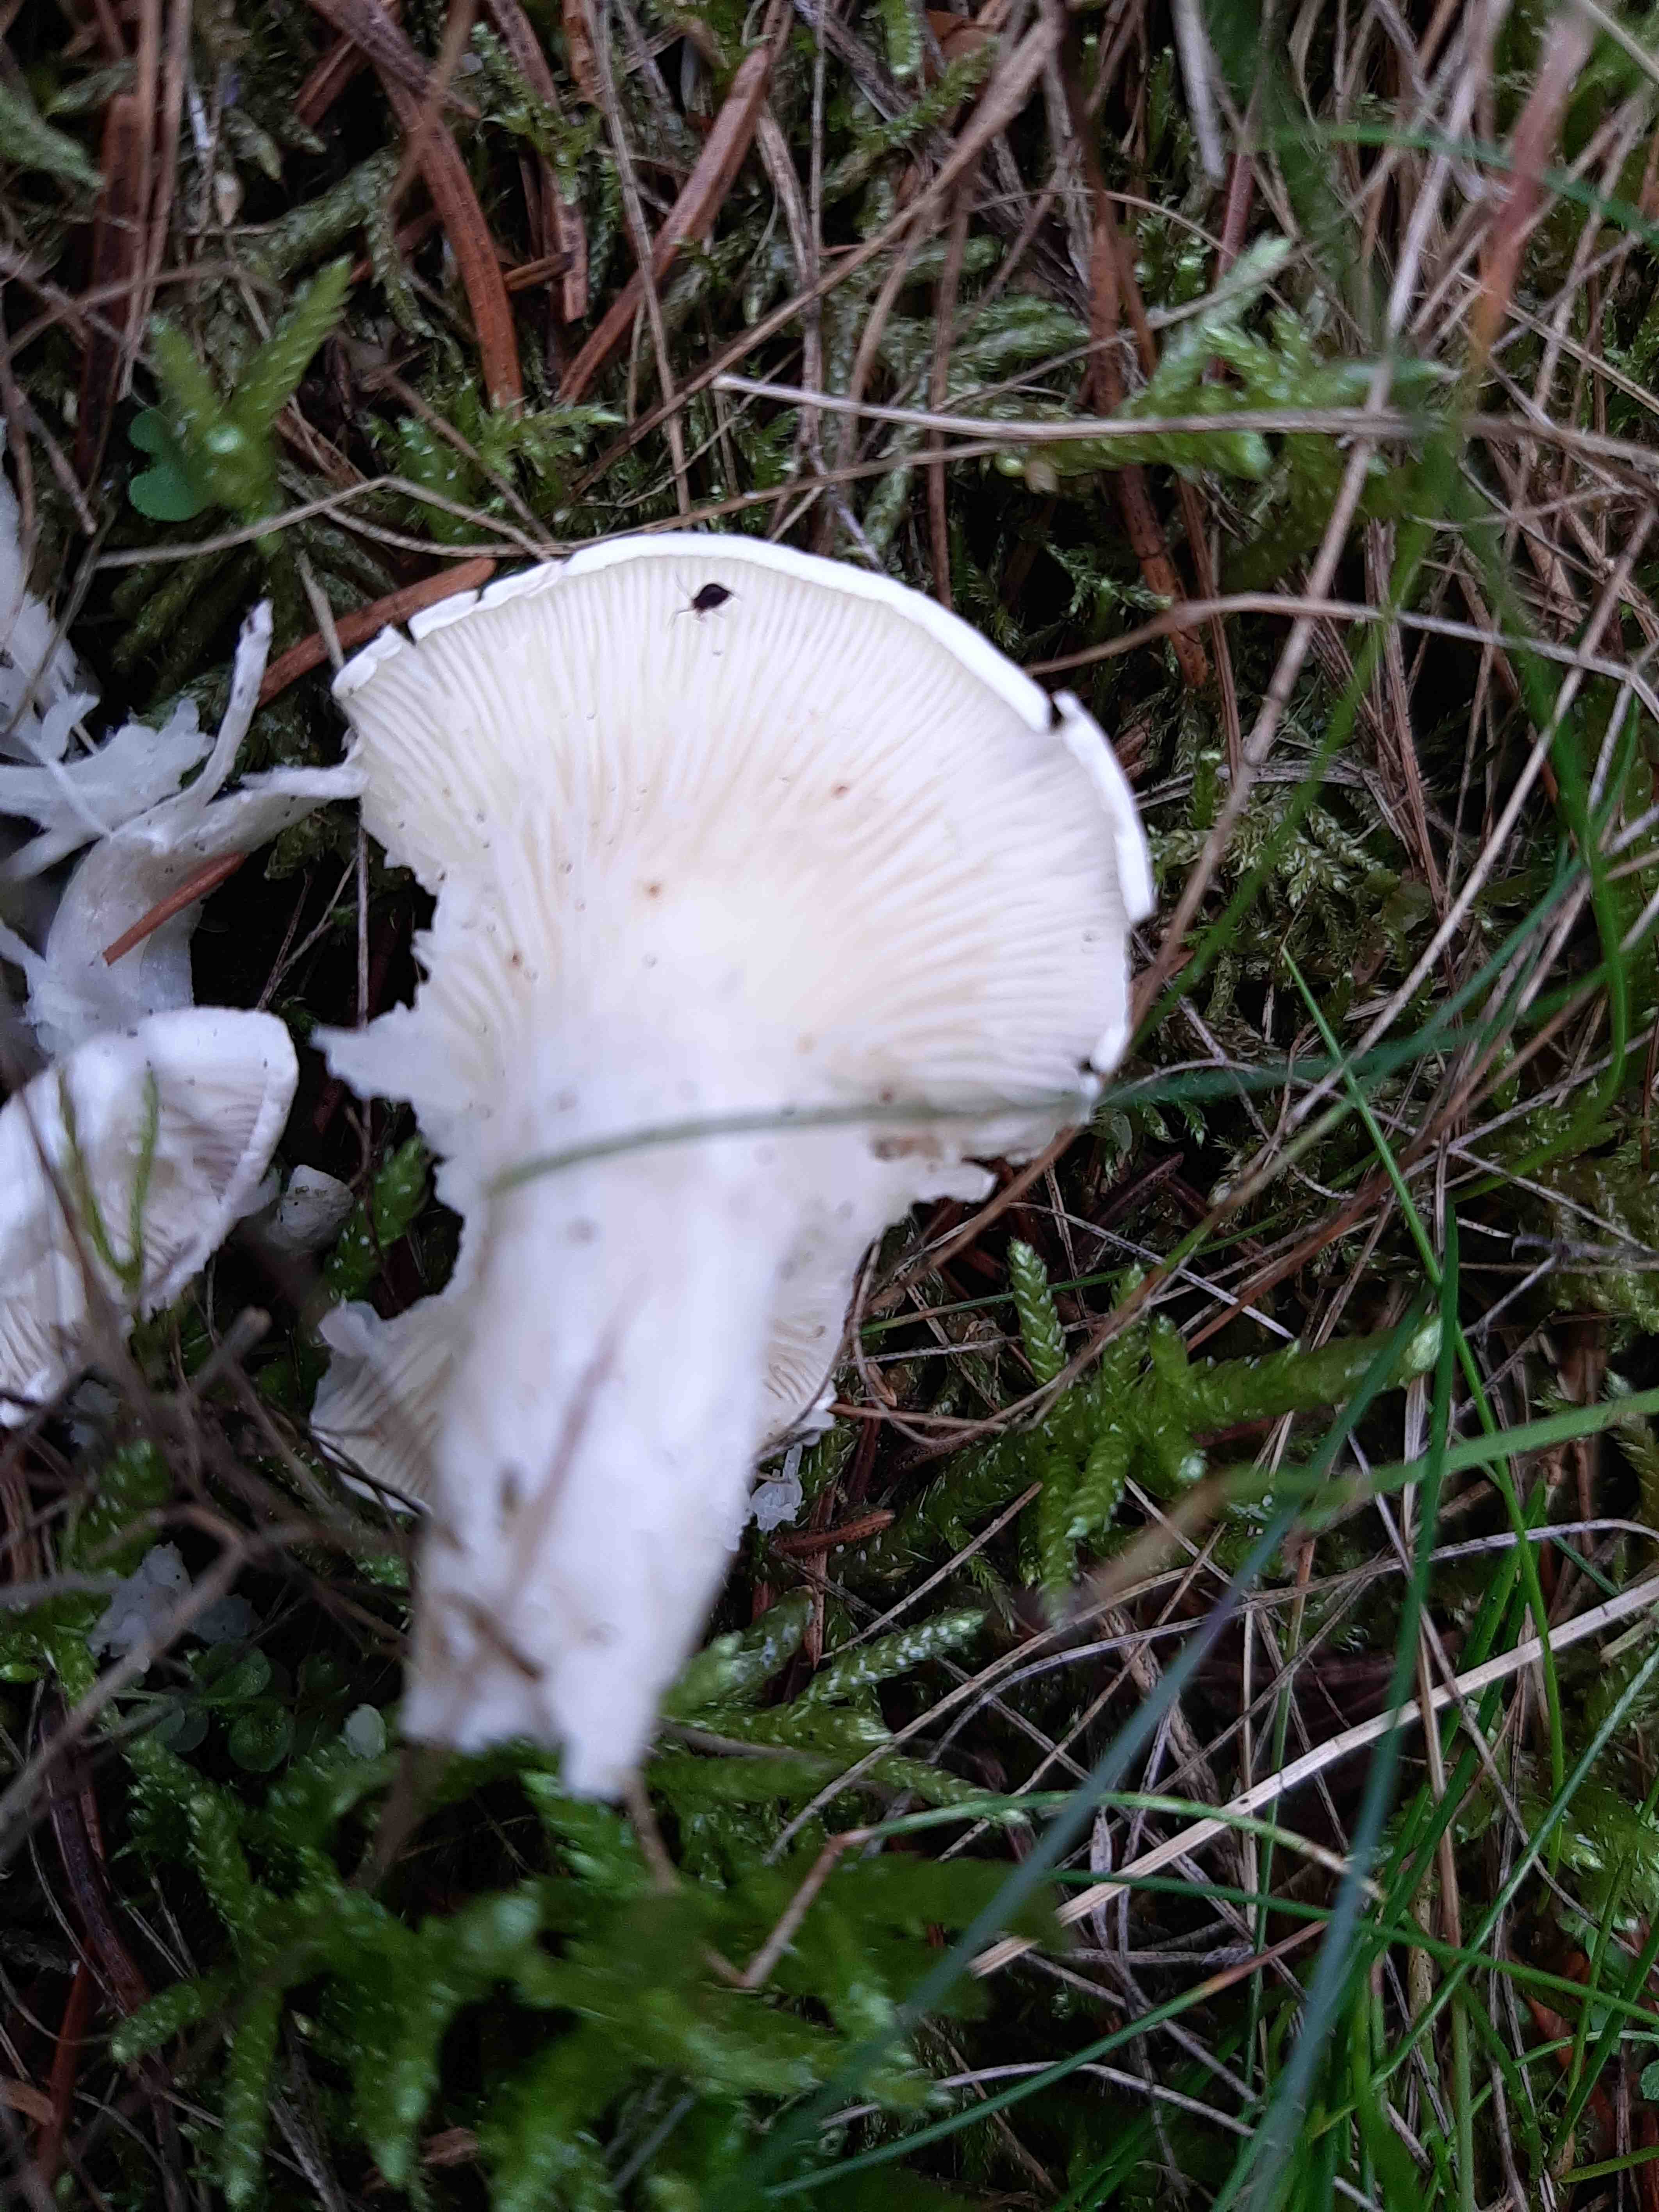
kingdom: Fungi
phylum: Basidiomycota
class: Agaricomycetes
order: Agaricales
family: Entolomataceae
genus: Clitopilus
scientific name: Clitopilus prunulus
